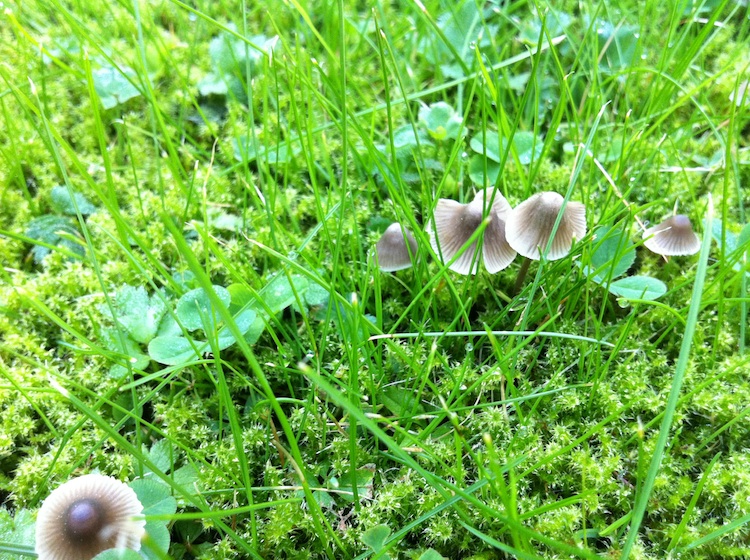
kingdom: Fungi
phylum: Basidiomycota
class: Agaricomycetes
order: Agaricales
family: Mycenaceae
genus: Mycena
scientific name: Mycena aetites
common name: plæne-huesvamp
